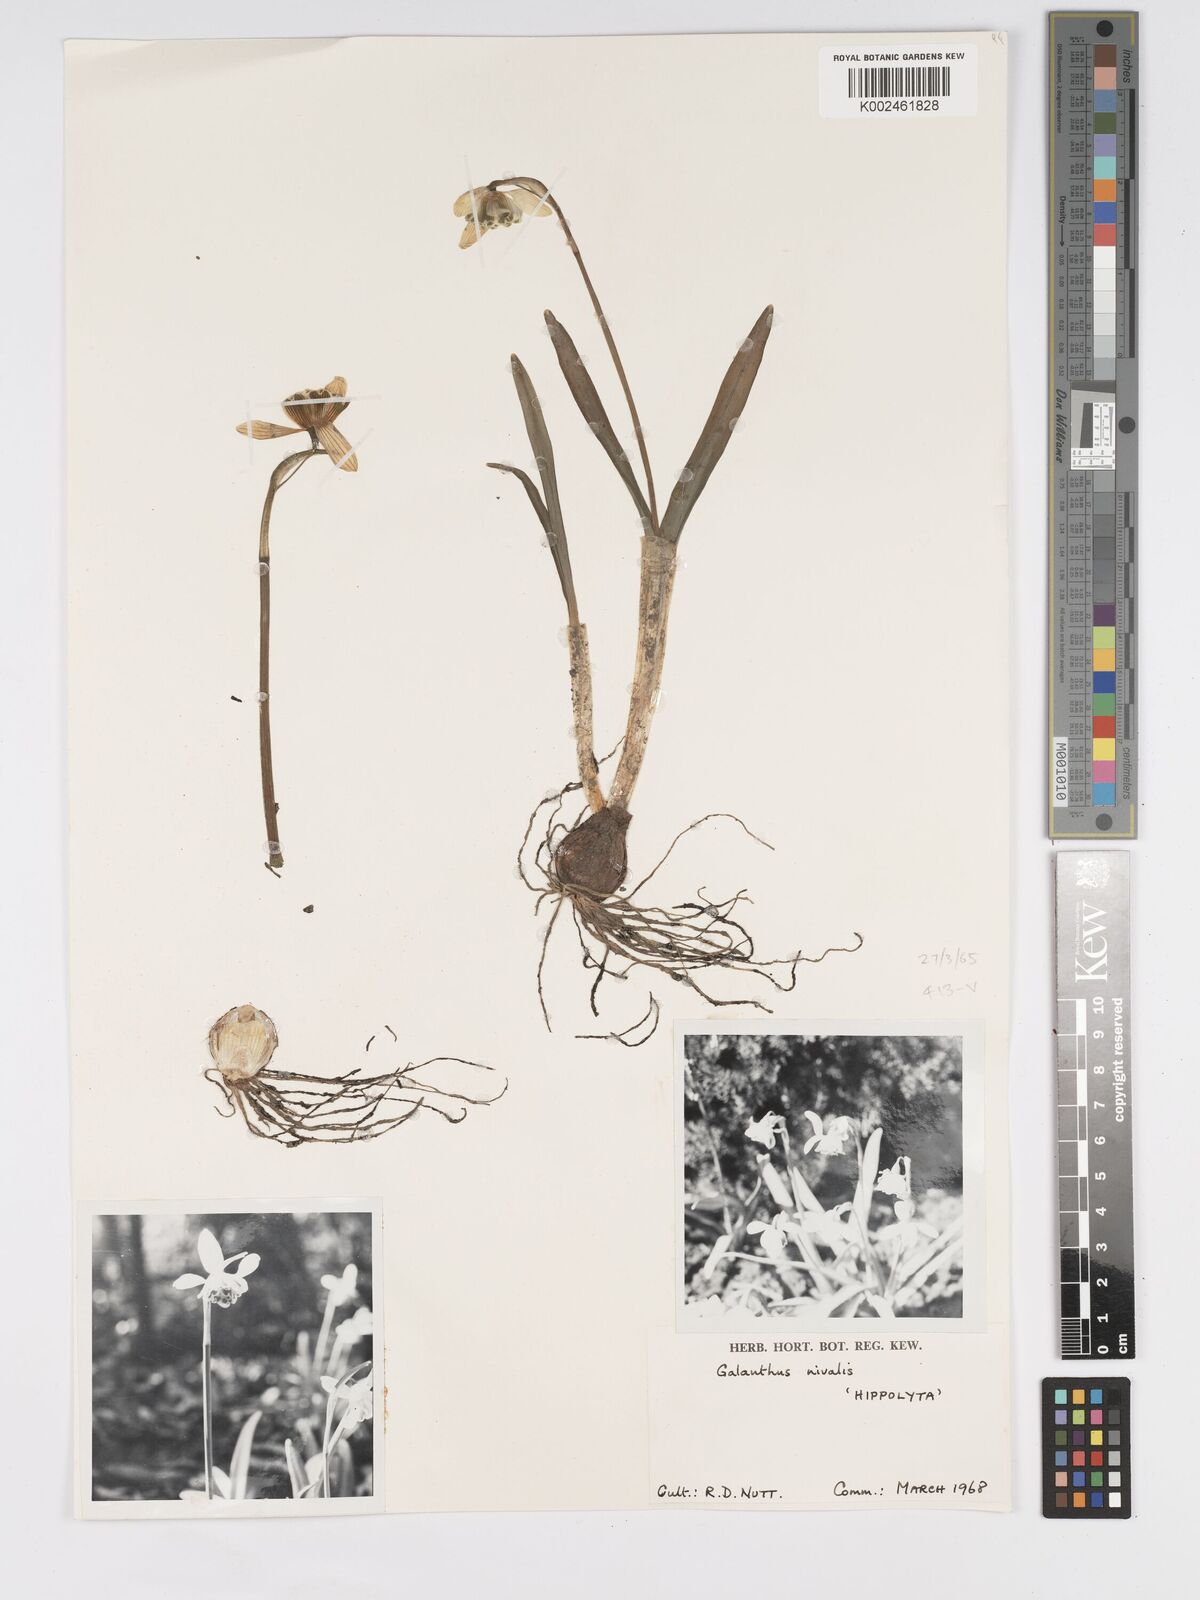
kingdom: Plantae
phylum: Tracheophyta
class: Liliopsida
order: Asparagales
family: Amaryllidaceae
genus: Galanthus
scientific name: Galanthus
